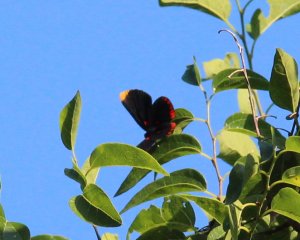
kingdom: Animalia
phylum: Arthropoda
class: Insecta
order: Lepidoptera
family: Lycaenidae
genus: Melanis
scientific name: Melanis pixe
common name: Red-bordered Pixie
